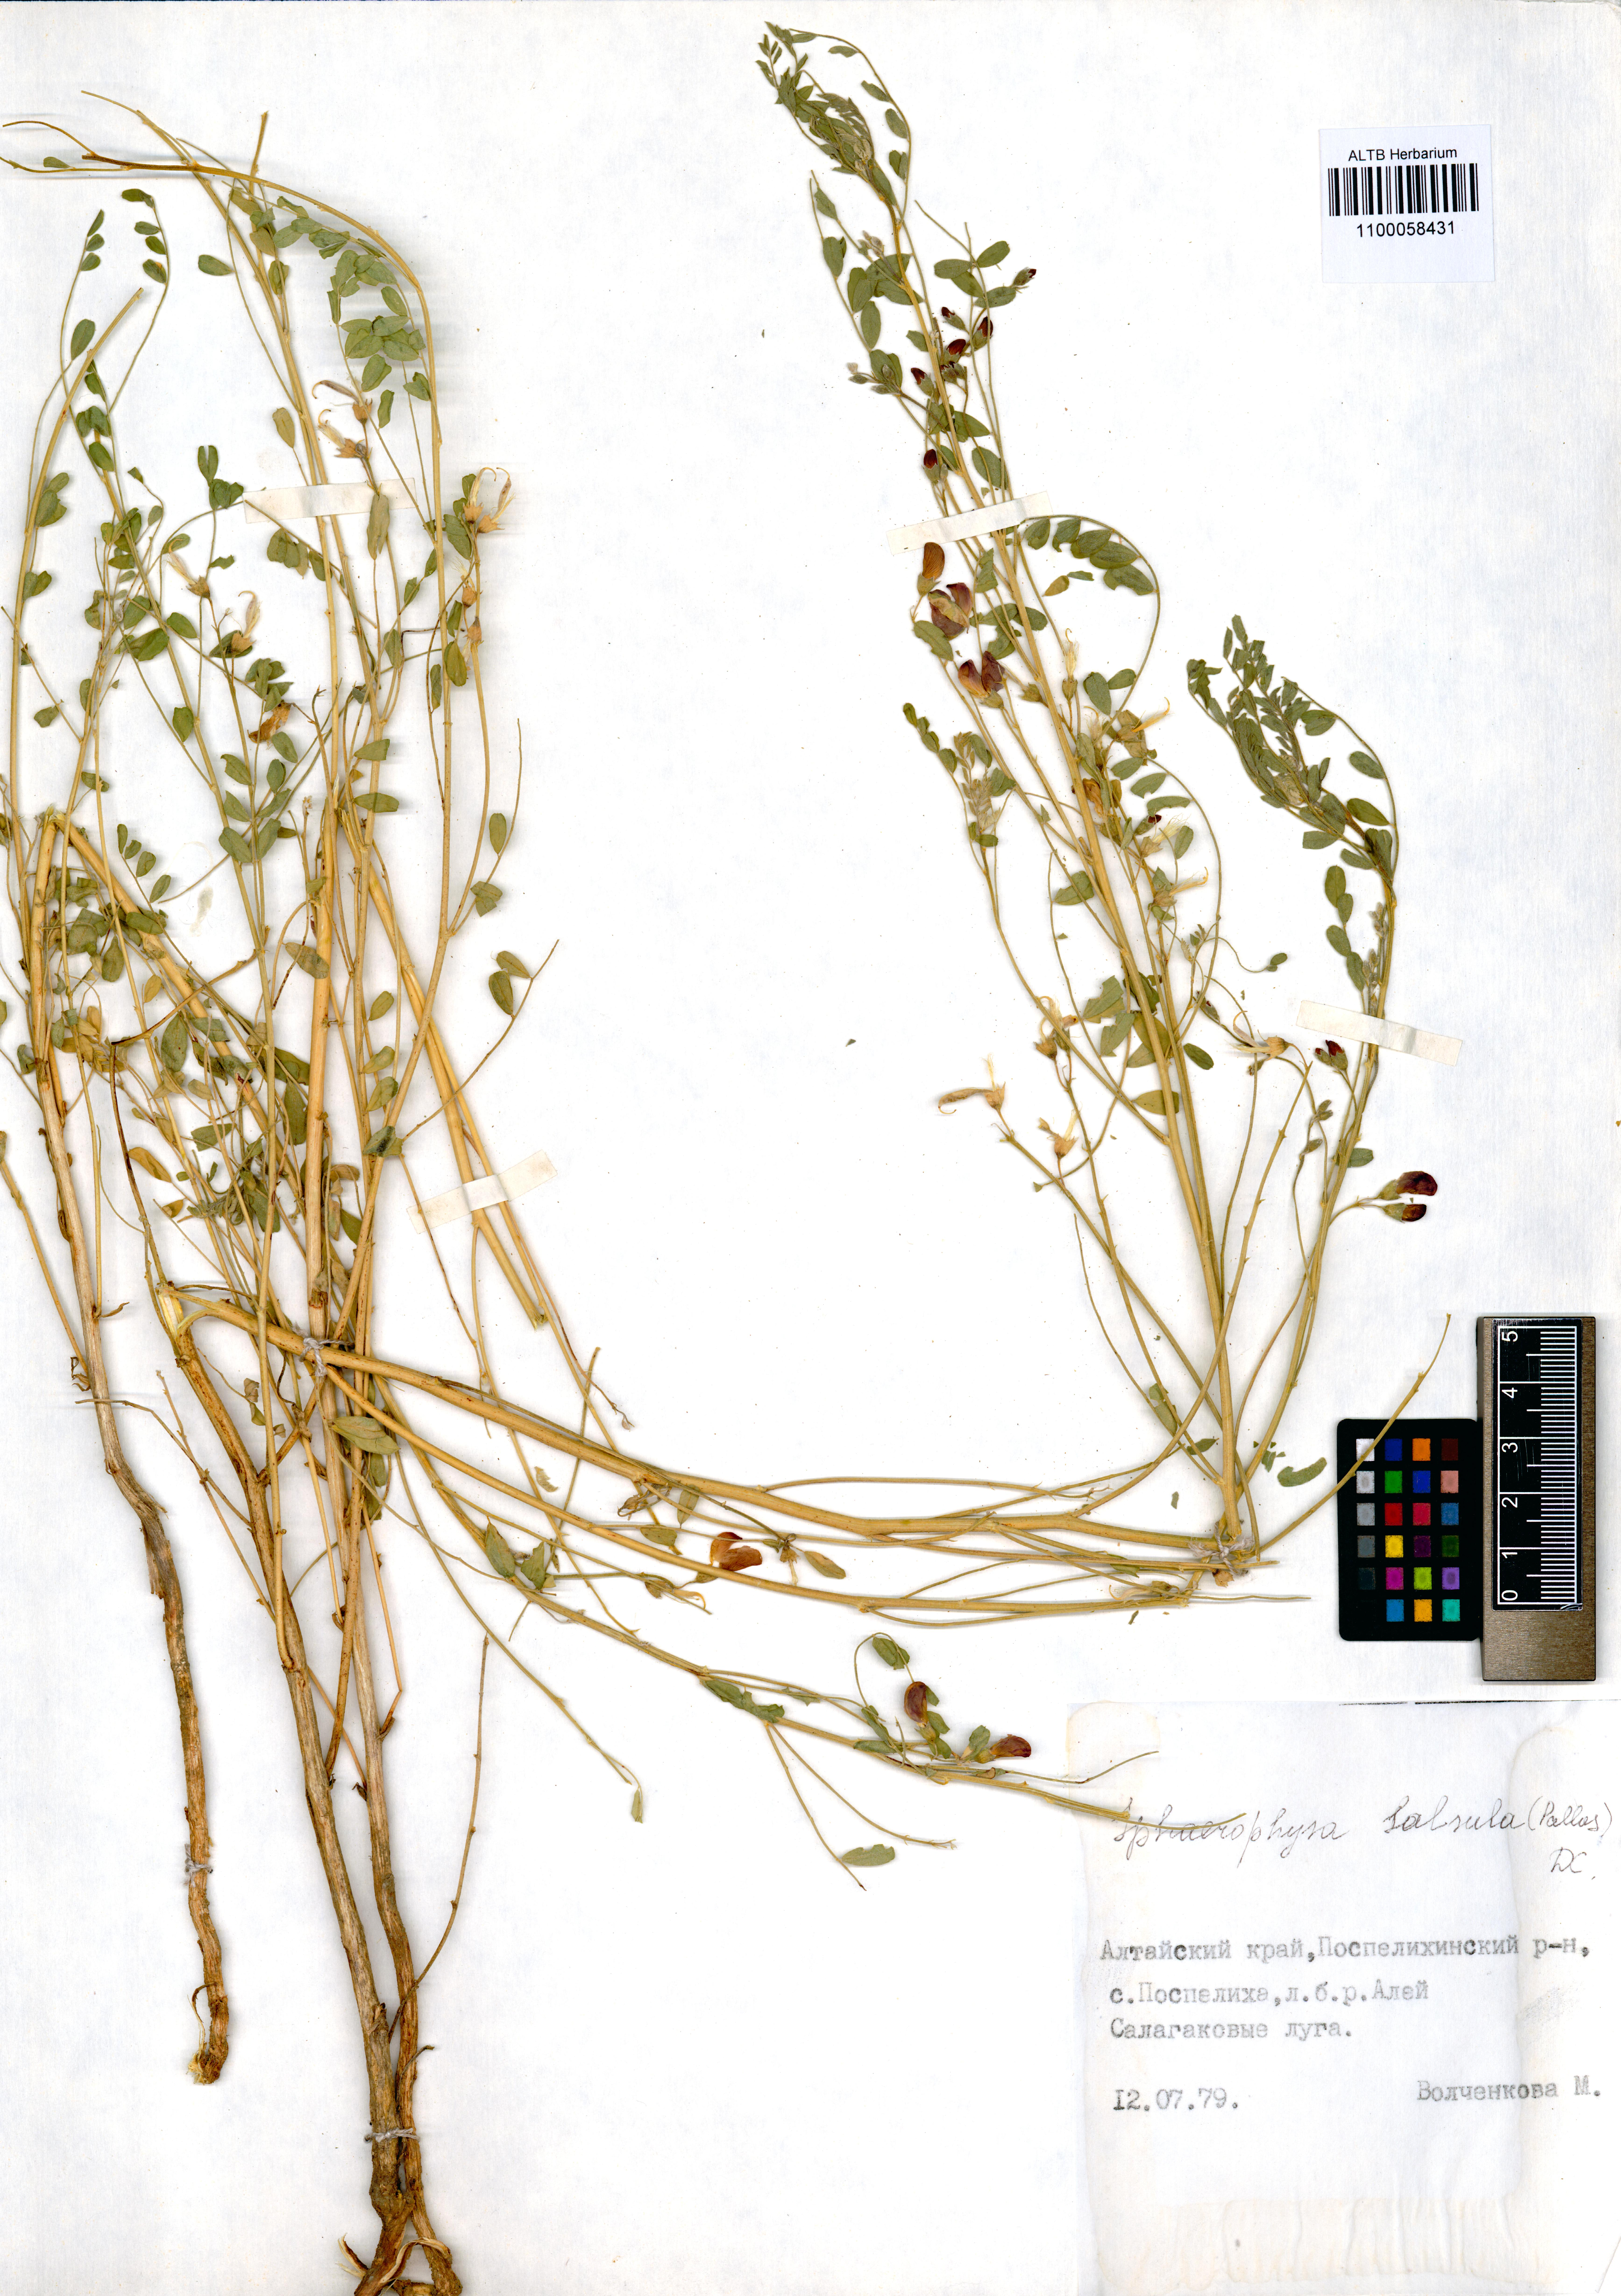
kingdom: Plantae
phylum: Tracheophyta
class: Magnoliopsida
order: Fabales
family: Fabaceae
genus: Sphaerophysa
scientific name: Sphaerophysa salsula
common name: Alkali swainsonpea
